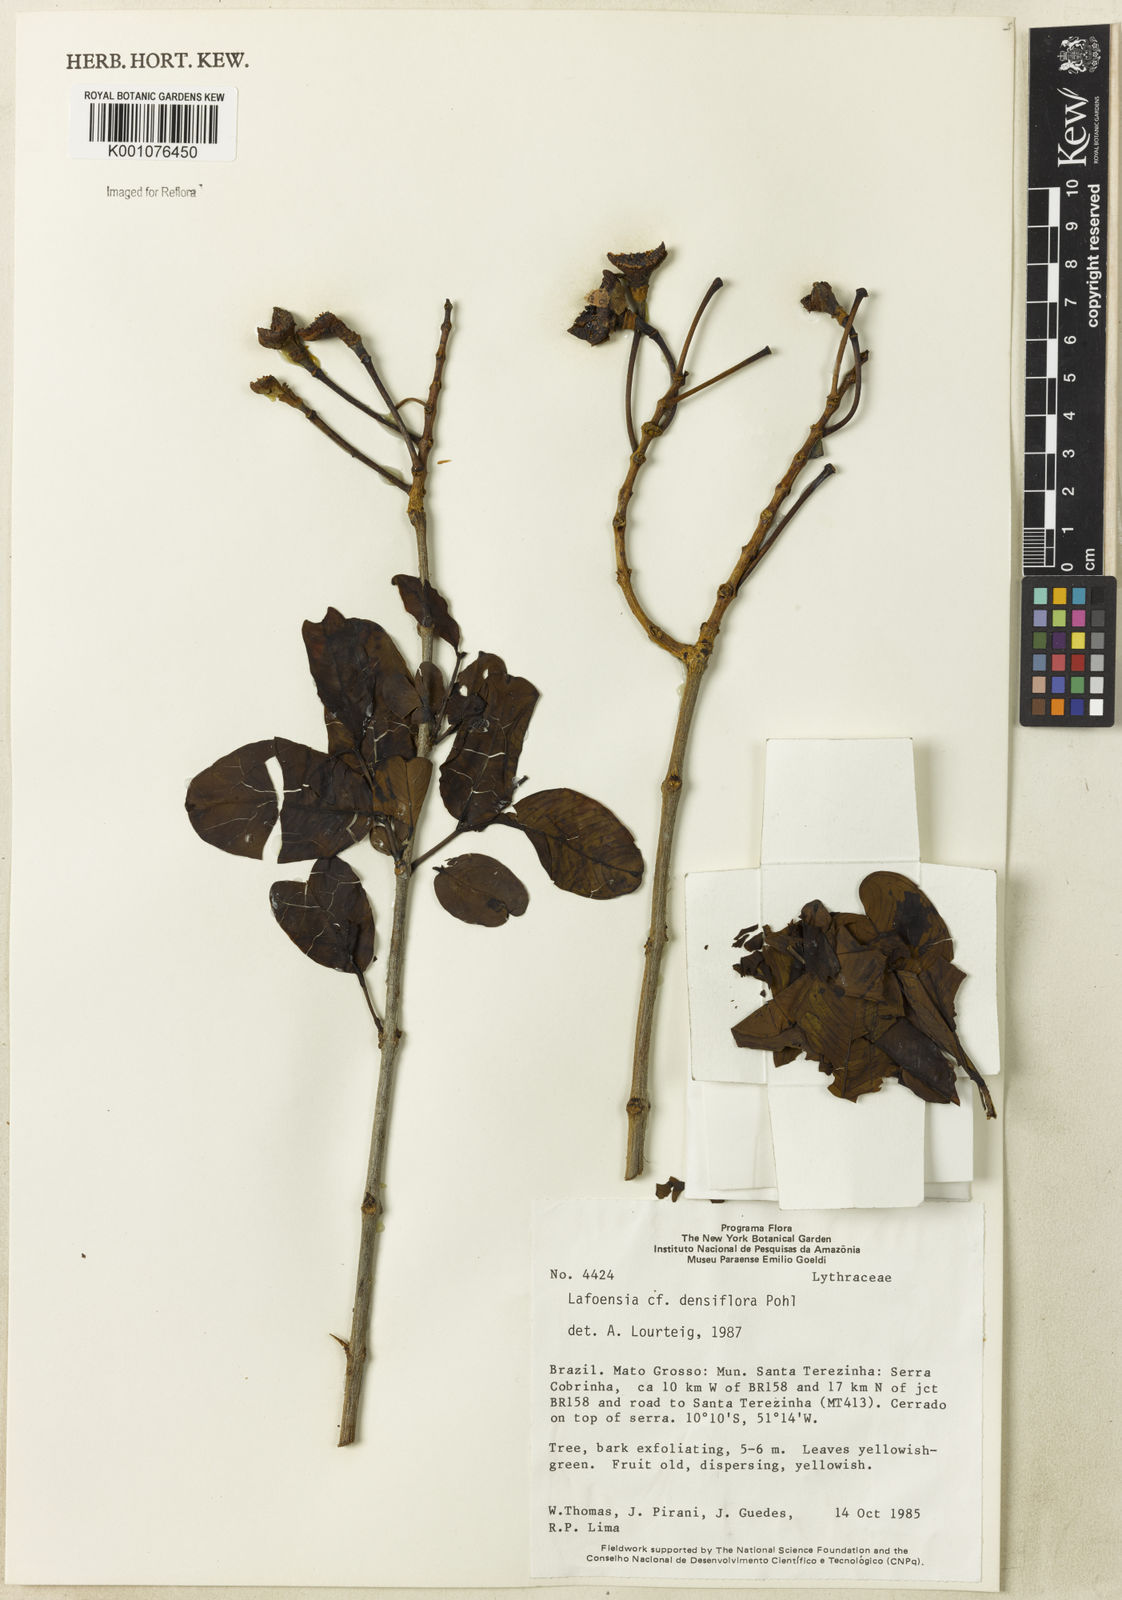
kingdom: Plantae
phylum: Tracheophyta
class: Magnoliopsida
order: Myrtales
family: Lythraceae
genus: Lafoensia
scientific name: Lafoensia vandelliana
